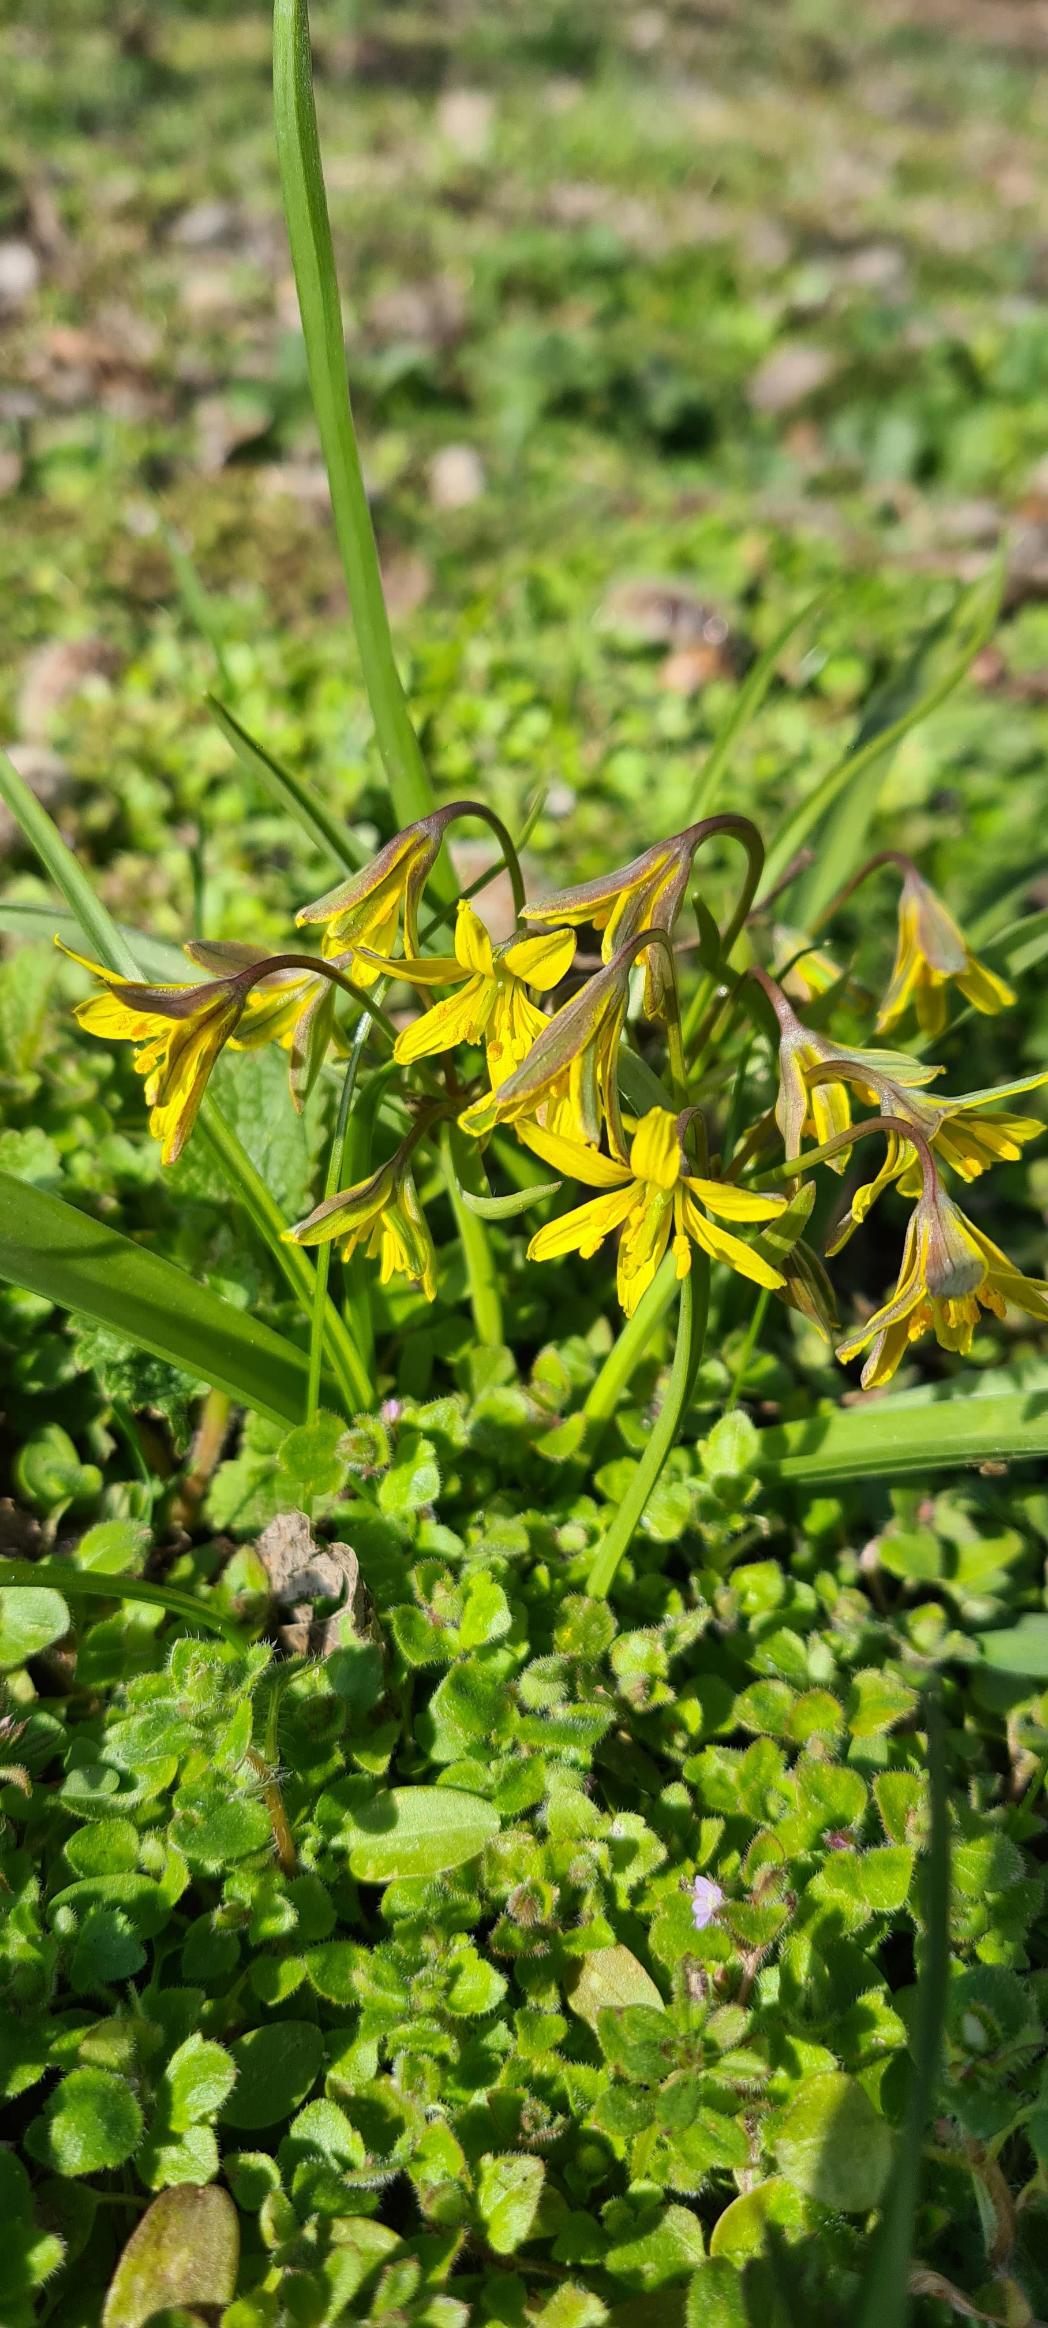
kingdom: Plantae
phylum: Tracheophyta
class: Liliopsida
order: Liliales
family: Liliaceae
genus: Gagea
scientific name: Gagea lutea
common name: Almindelig guldstjerne
